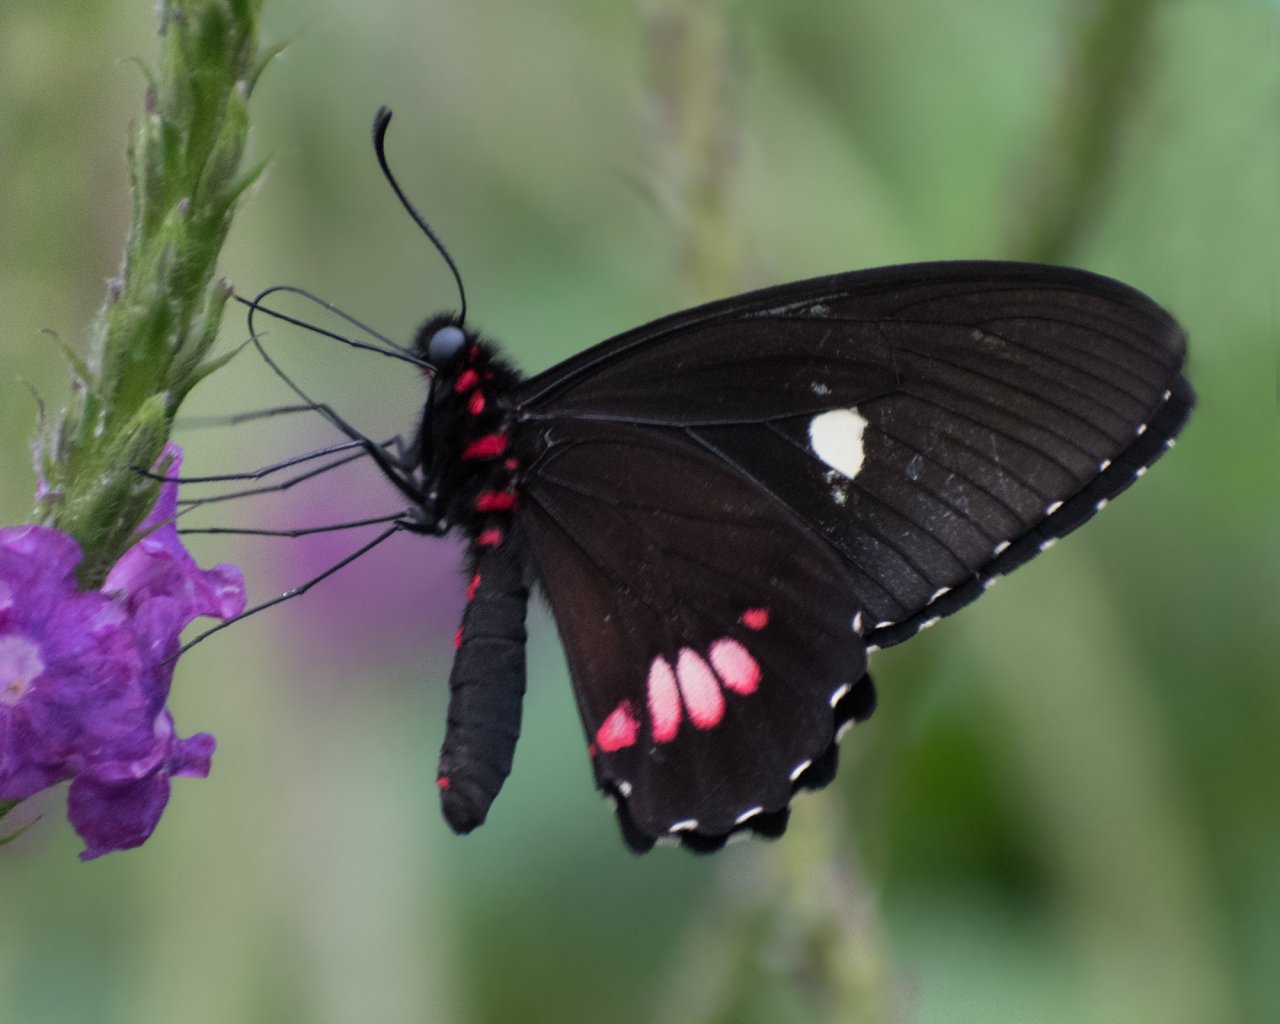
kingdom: Animalia
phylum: Arthropoda
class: Insecta
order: Lepidoptera
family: Papilionidae
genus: Parides
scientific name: Parides erithalion
